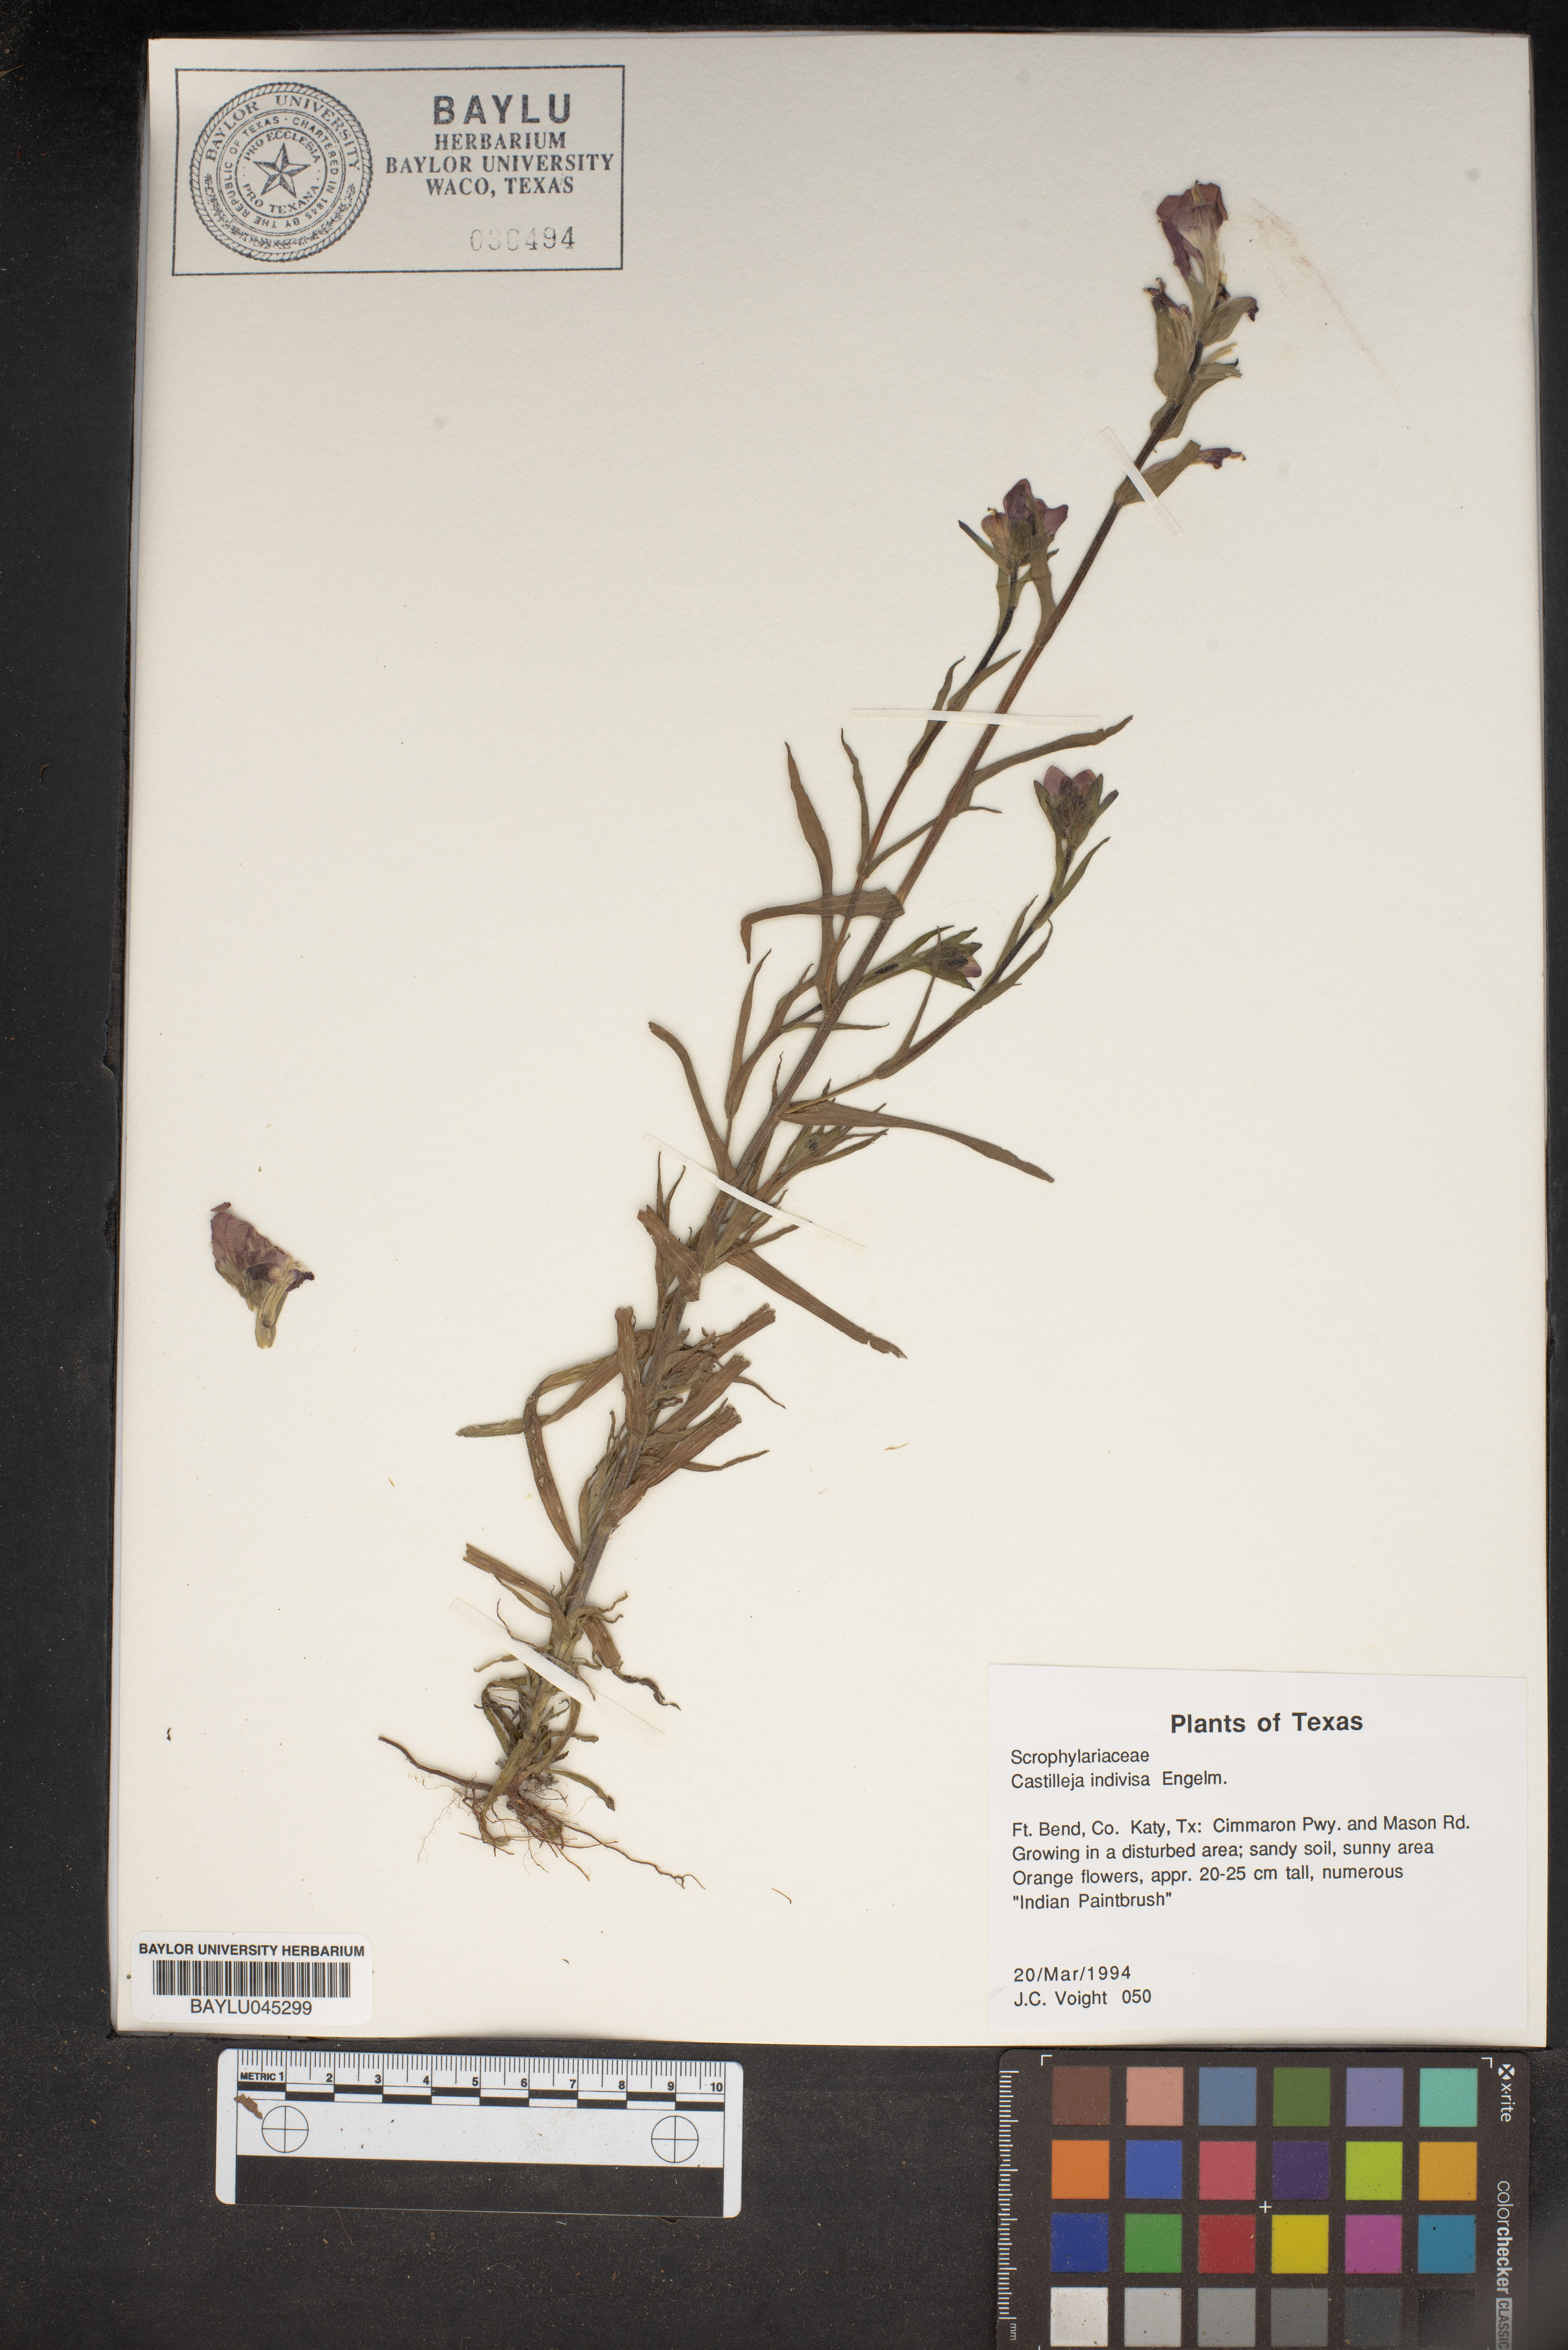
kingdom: Plantae
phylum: Tracheophyta
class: Magnoliopsida
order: Lamiales
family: Orobanchaceae
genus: Castilleja
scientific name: Castilleja indivisa
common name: Texas paintbrush
